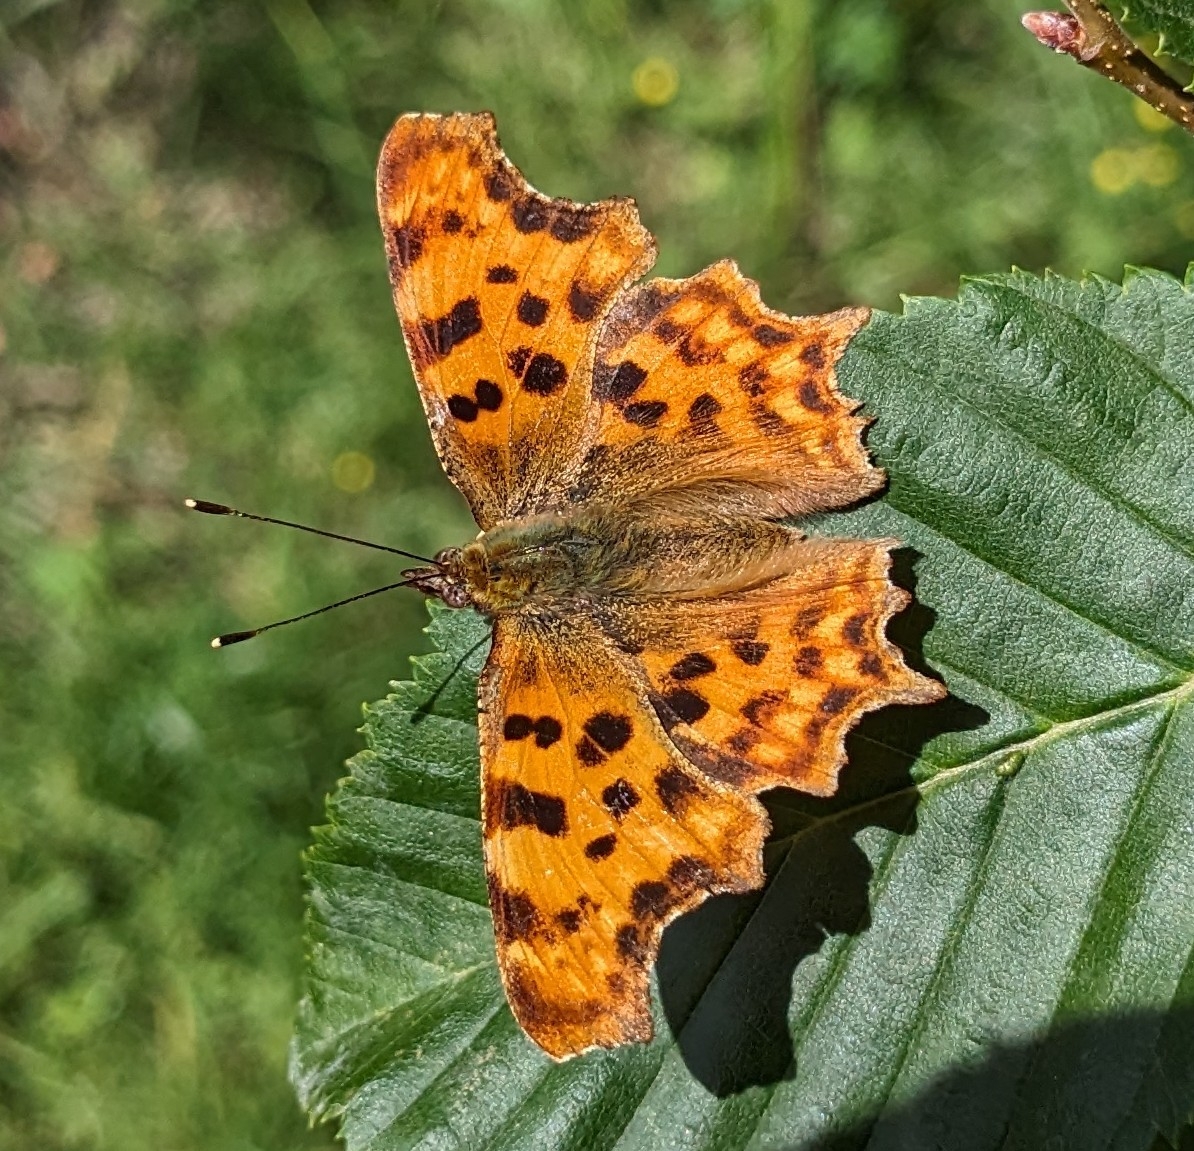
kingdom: Animalia
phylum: Arthropoda
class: Insecta
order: Lepidoptera
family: Nymphalidae
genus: Polygonia
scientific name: Polygonia c-album
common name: Det hvide C
